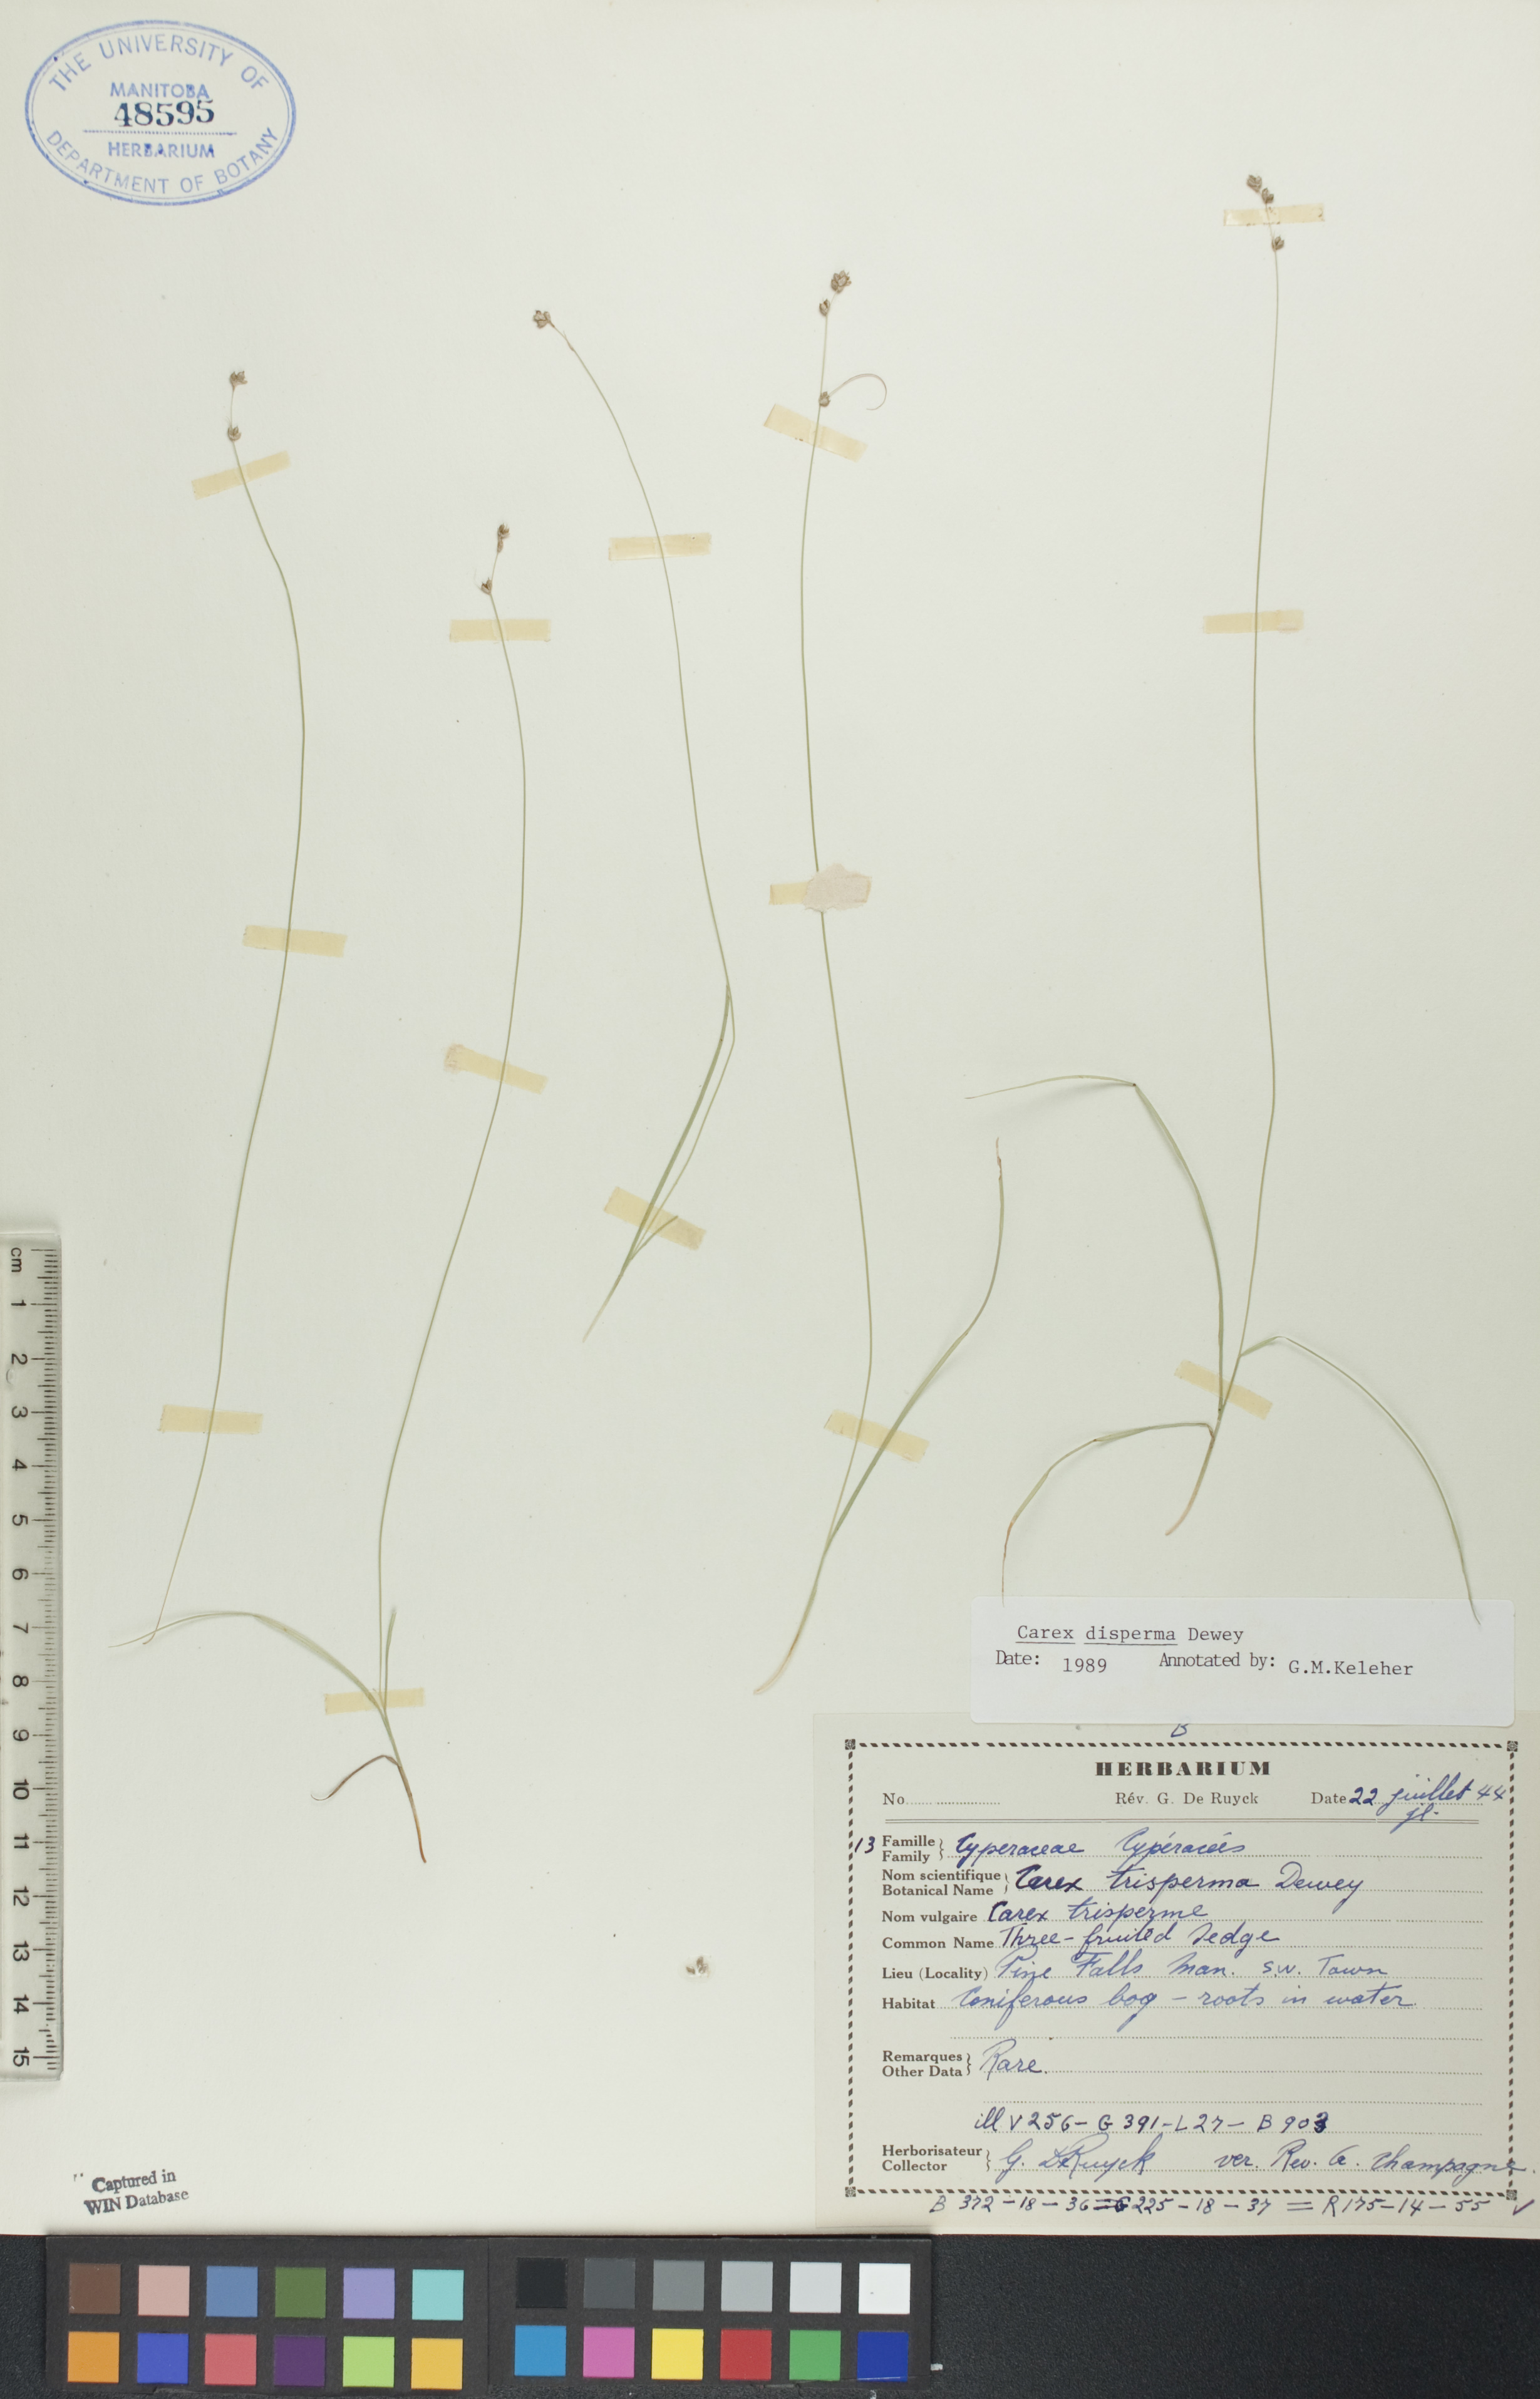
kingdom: Plantae
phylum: Tracheophyta
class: Liliopsida
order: Poales
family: Cyperaceae
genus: Carex
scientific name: Carex disperma
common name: Short-leaved sedge
